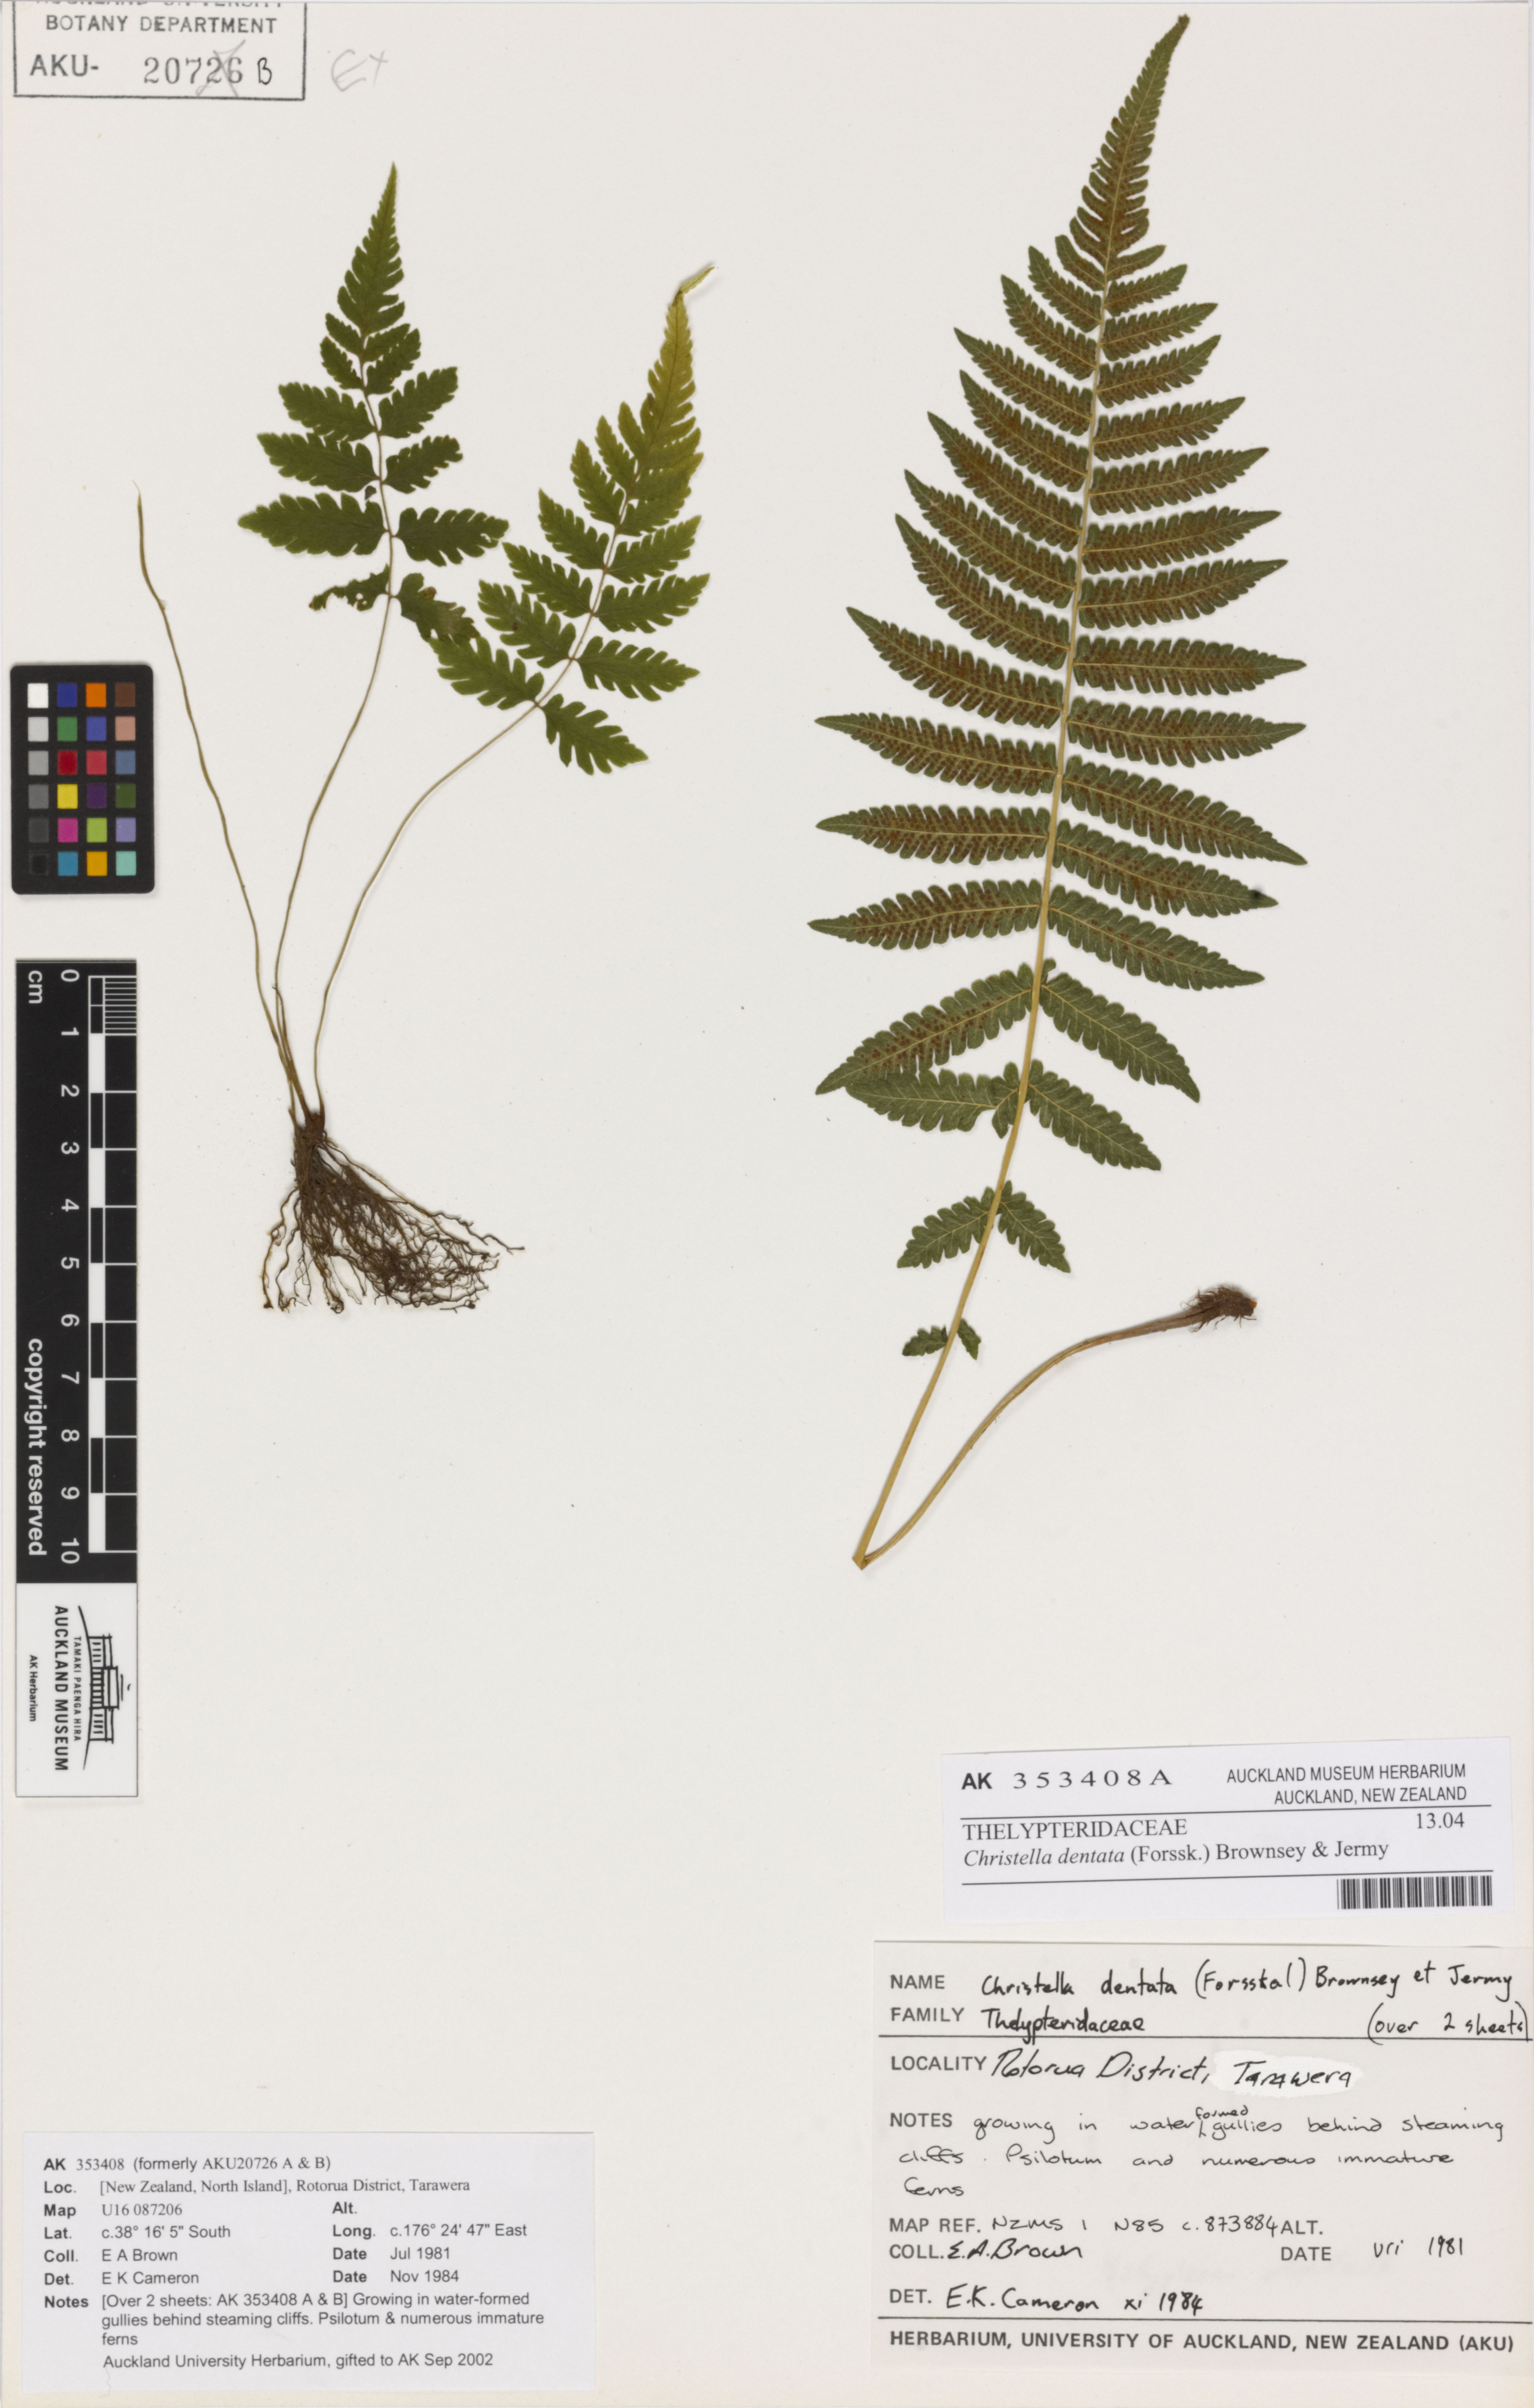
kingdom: Plantae
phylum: Tracheophyta
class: Polypodiopsida
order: Polypodiales
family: Thelypteridaceae
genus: Christella
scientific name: Christella dentata
